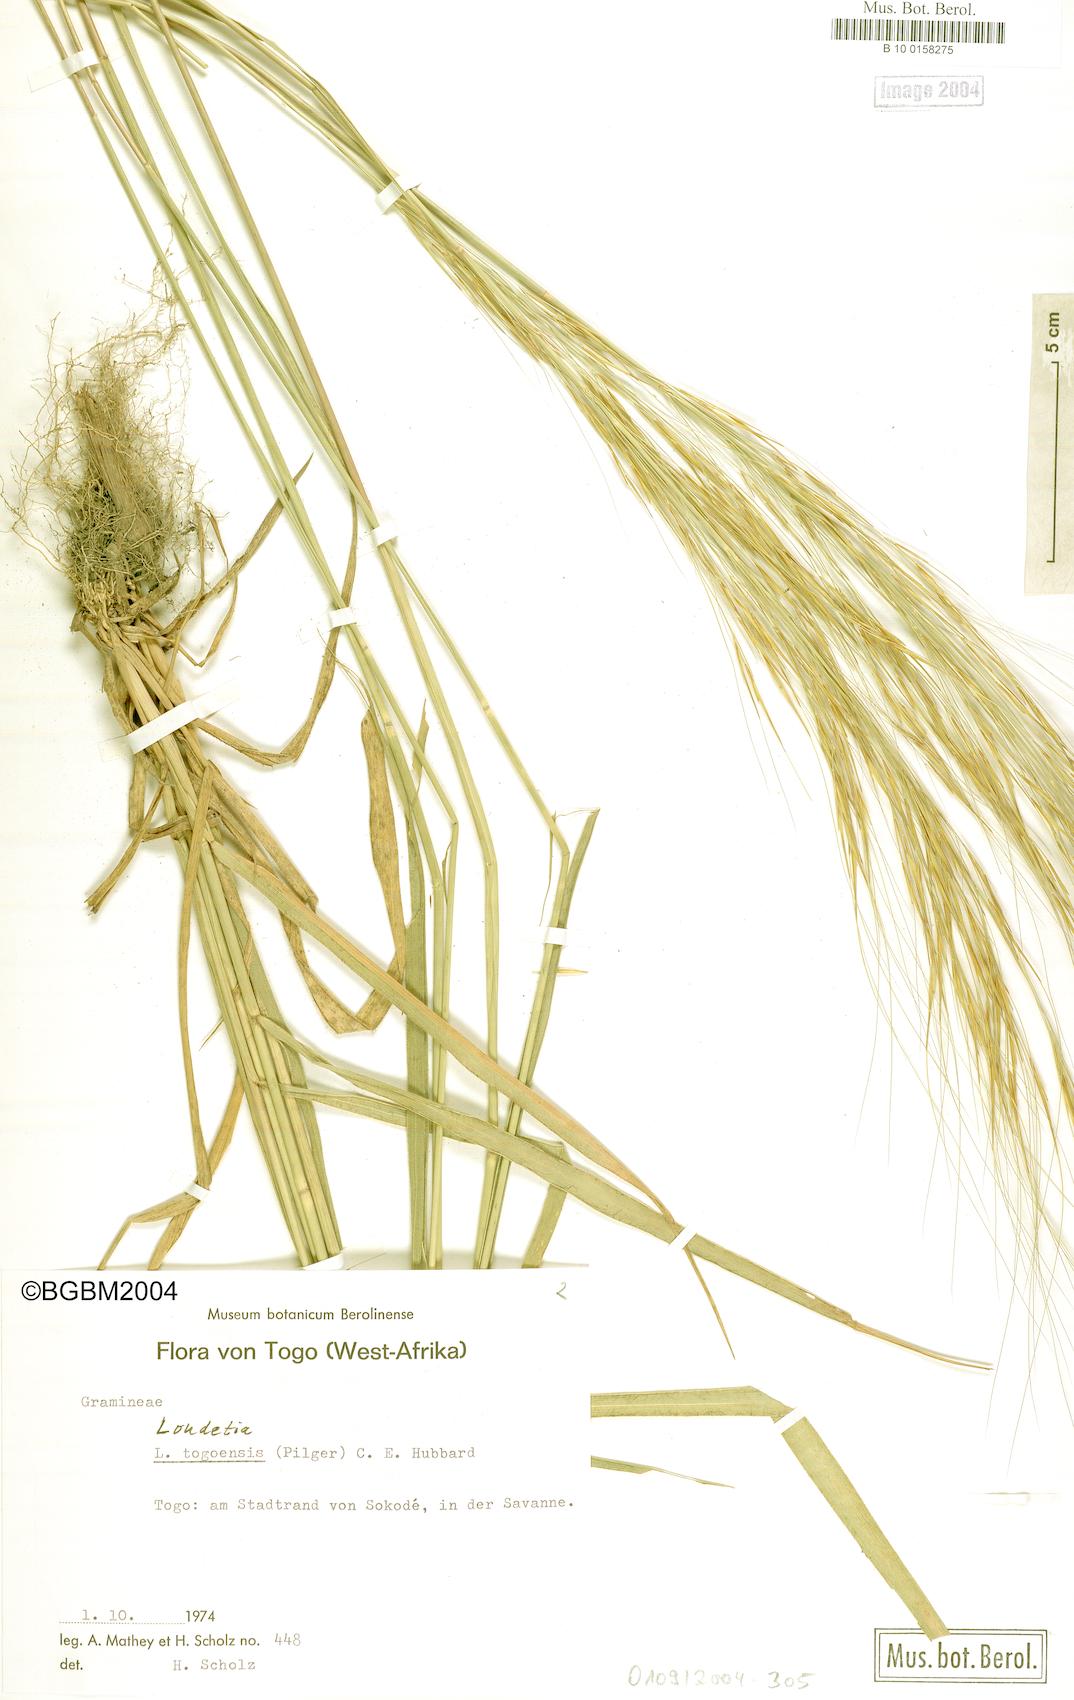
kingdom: Plantae
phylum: Tracheophyta
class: Liliopsida
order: Poales
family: Poaceae
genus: Loudetia
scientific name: Loudetia togoensis
